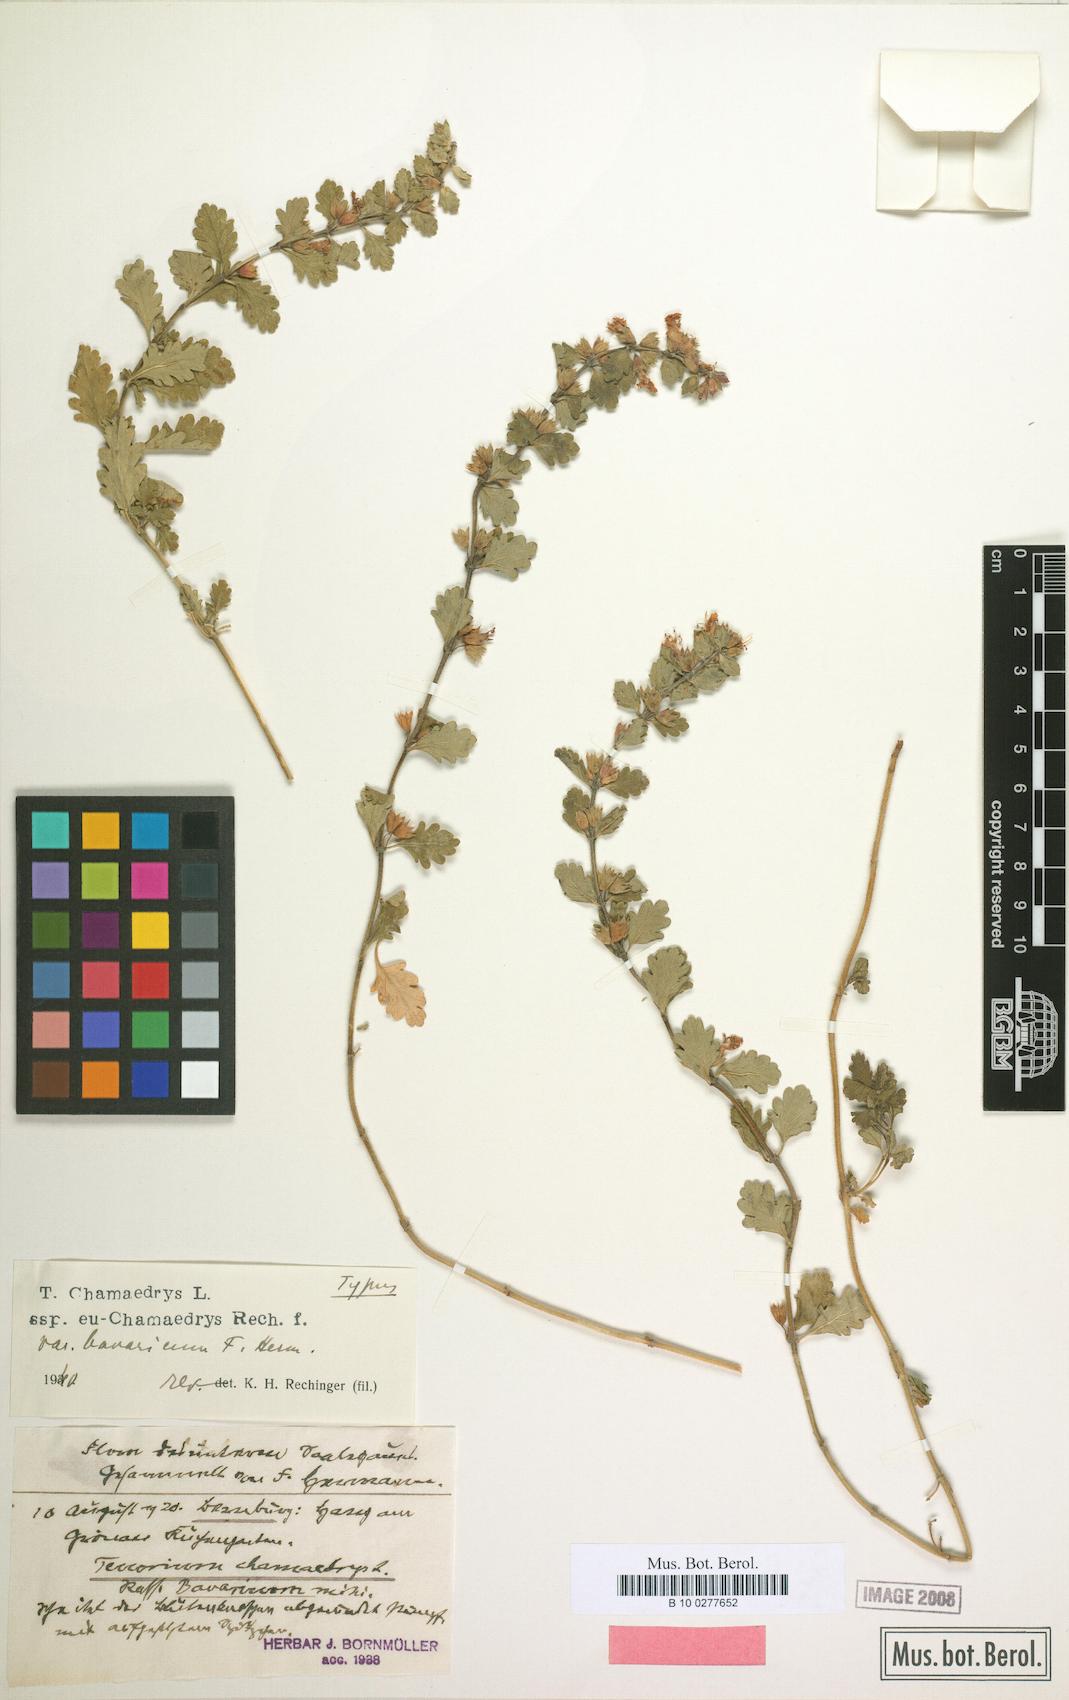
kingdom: Plantae
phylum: Tracheophyta
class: Magnoliopsida
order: Lamiales
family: Lamiaceae
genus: Teucrium
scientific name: Teucrium chamaedrys
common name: Wall germander
